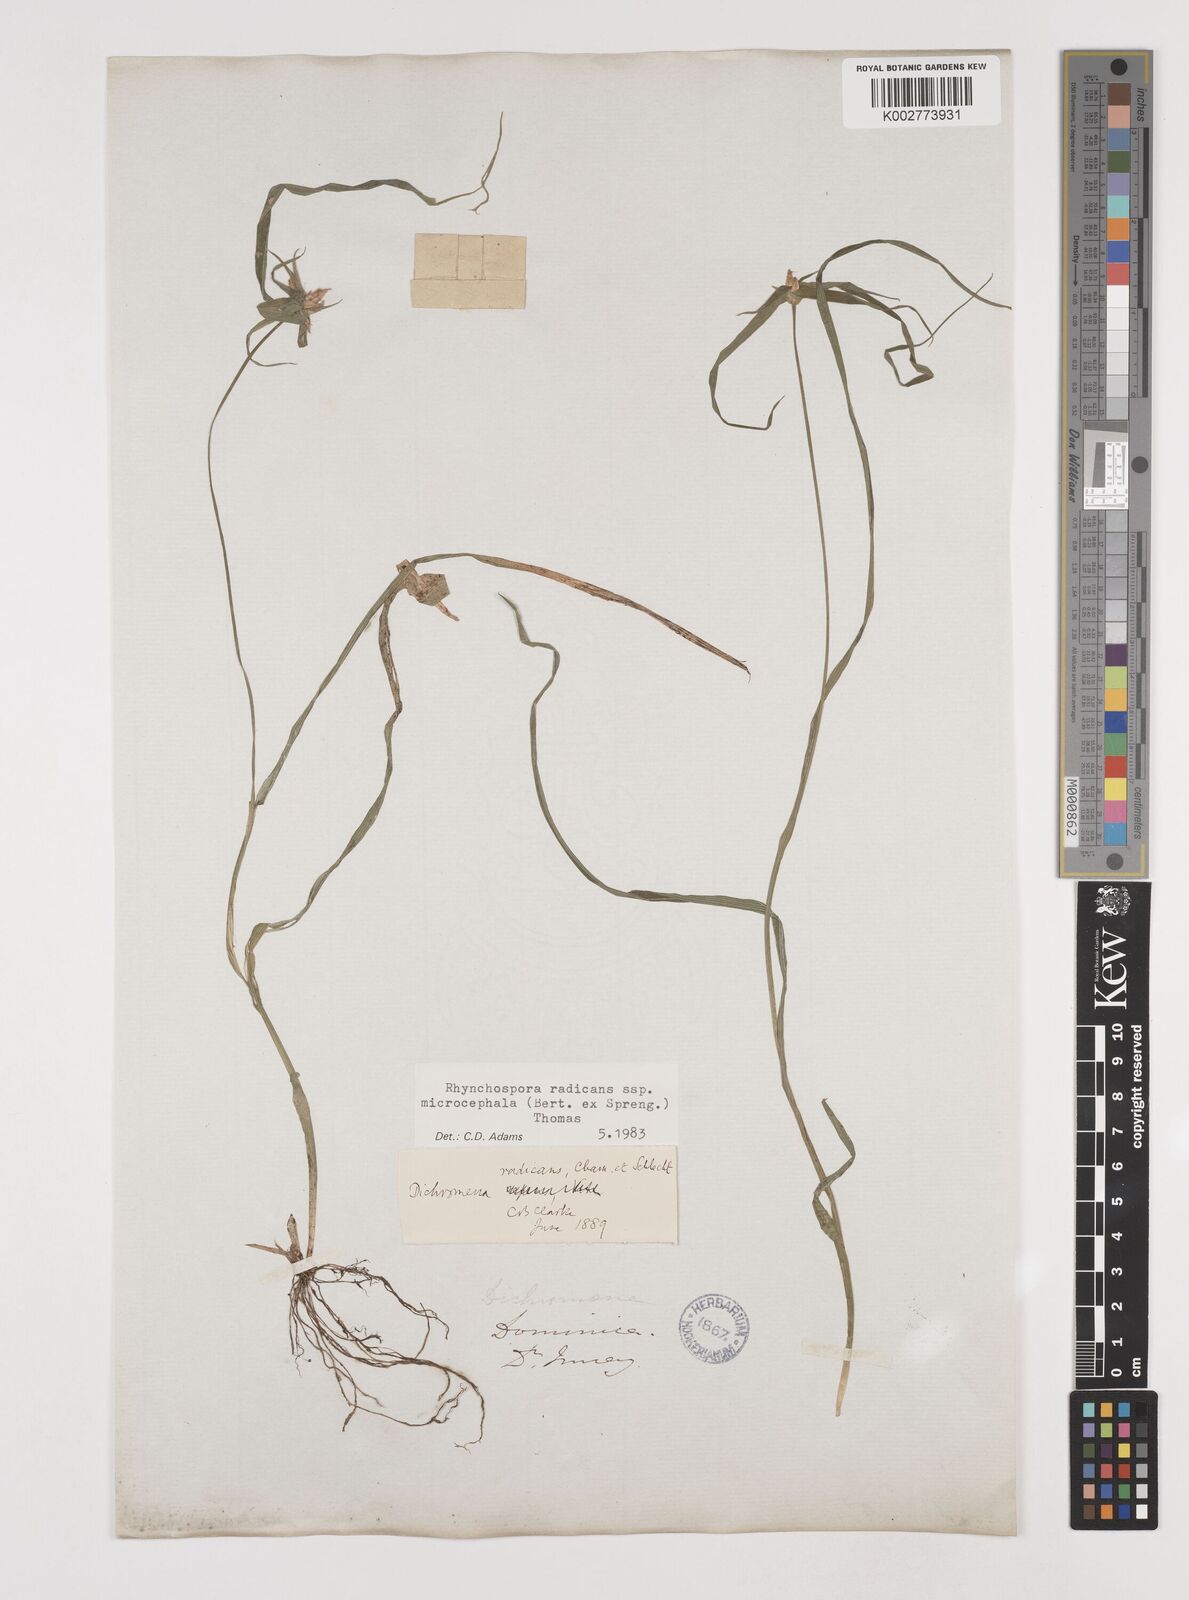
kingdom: Plantae
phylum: Tracheophyta
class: Liliopsida
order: Poales
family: Cyperaceae
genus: Rhynchospora
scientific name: Rhynchospora radicans
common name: Tropical whitetop
